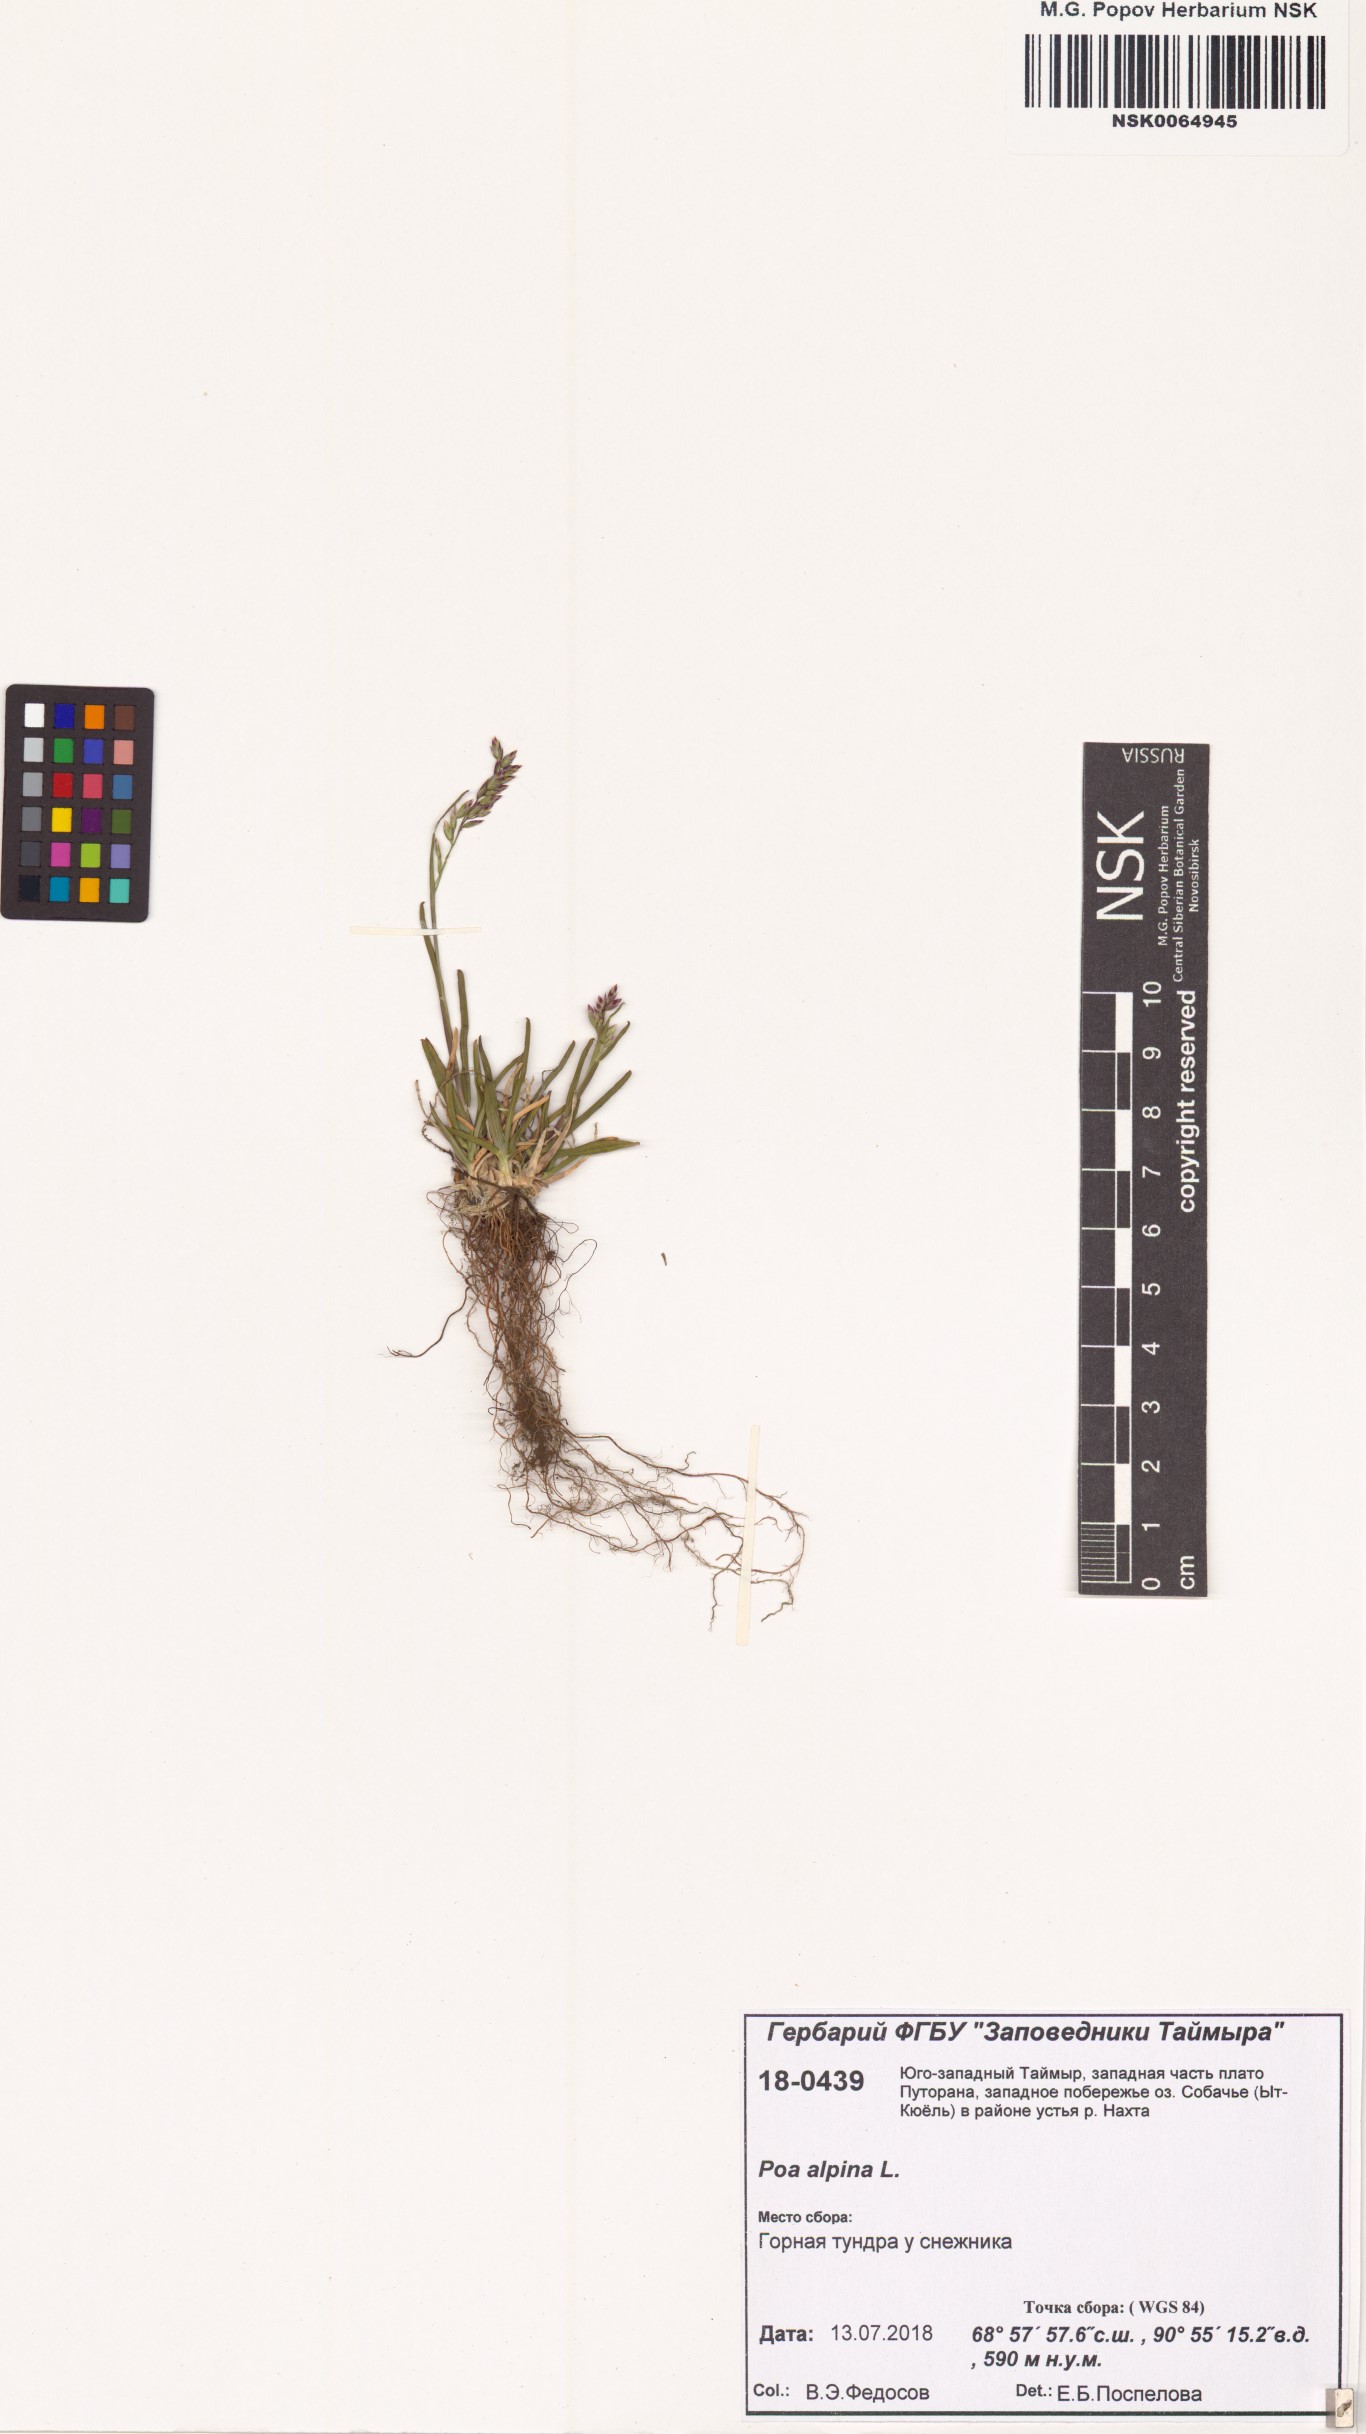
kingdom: Plantae
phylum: Tracheophyta
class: Liliopsida
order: Poales
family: Poaceae
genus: Poa
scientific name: Poa alpina
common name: Alpine bluegrass
